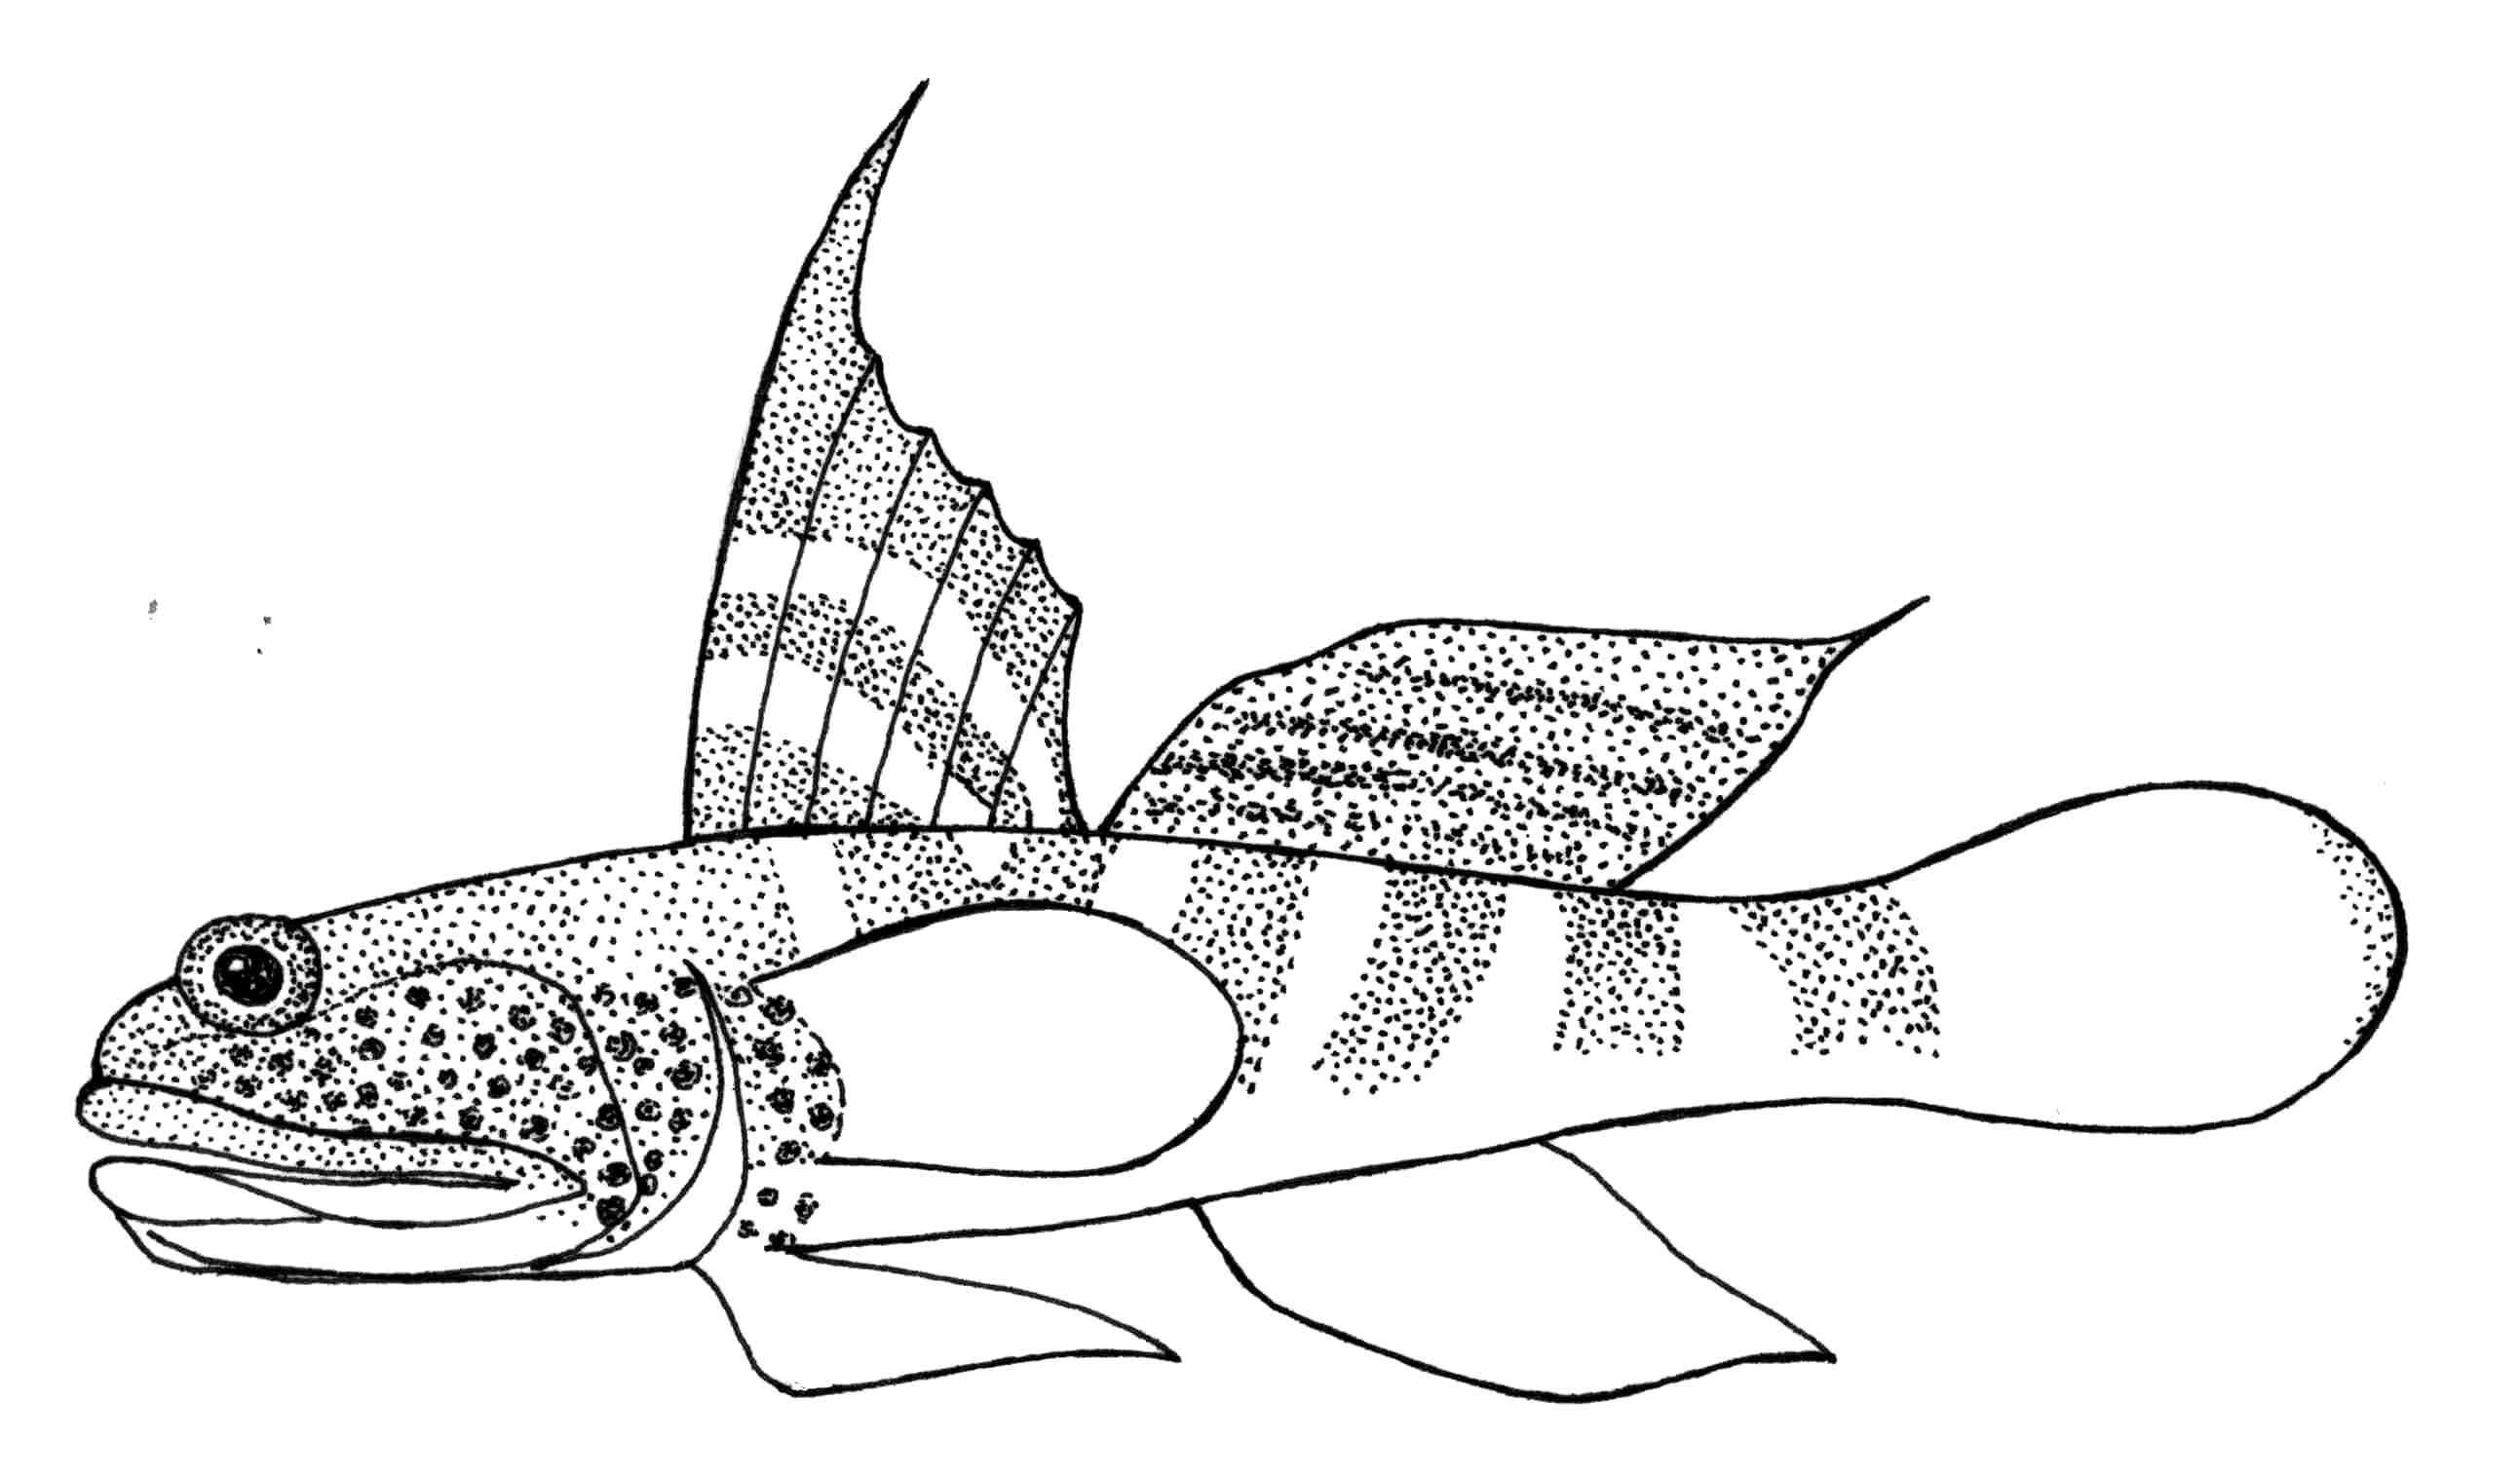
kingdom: Animalia
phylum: Chordata
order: Perciformes
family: Gobiidae
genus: Mahidolia
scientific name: Mahidolia mystacina
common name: Smiling goby
